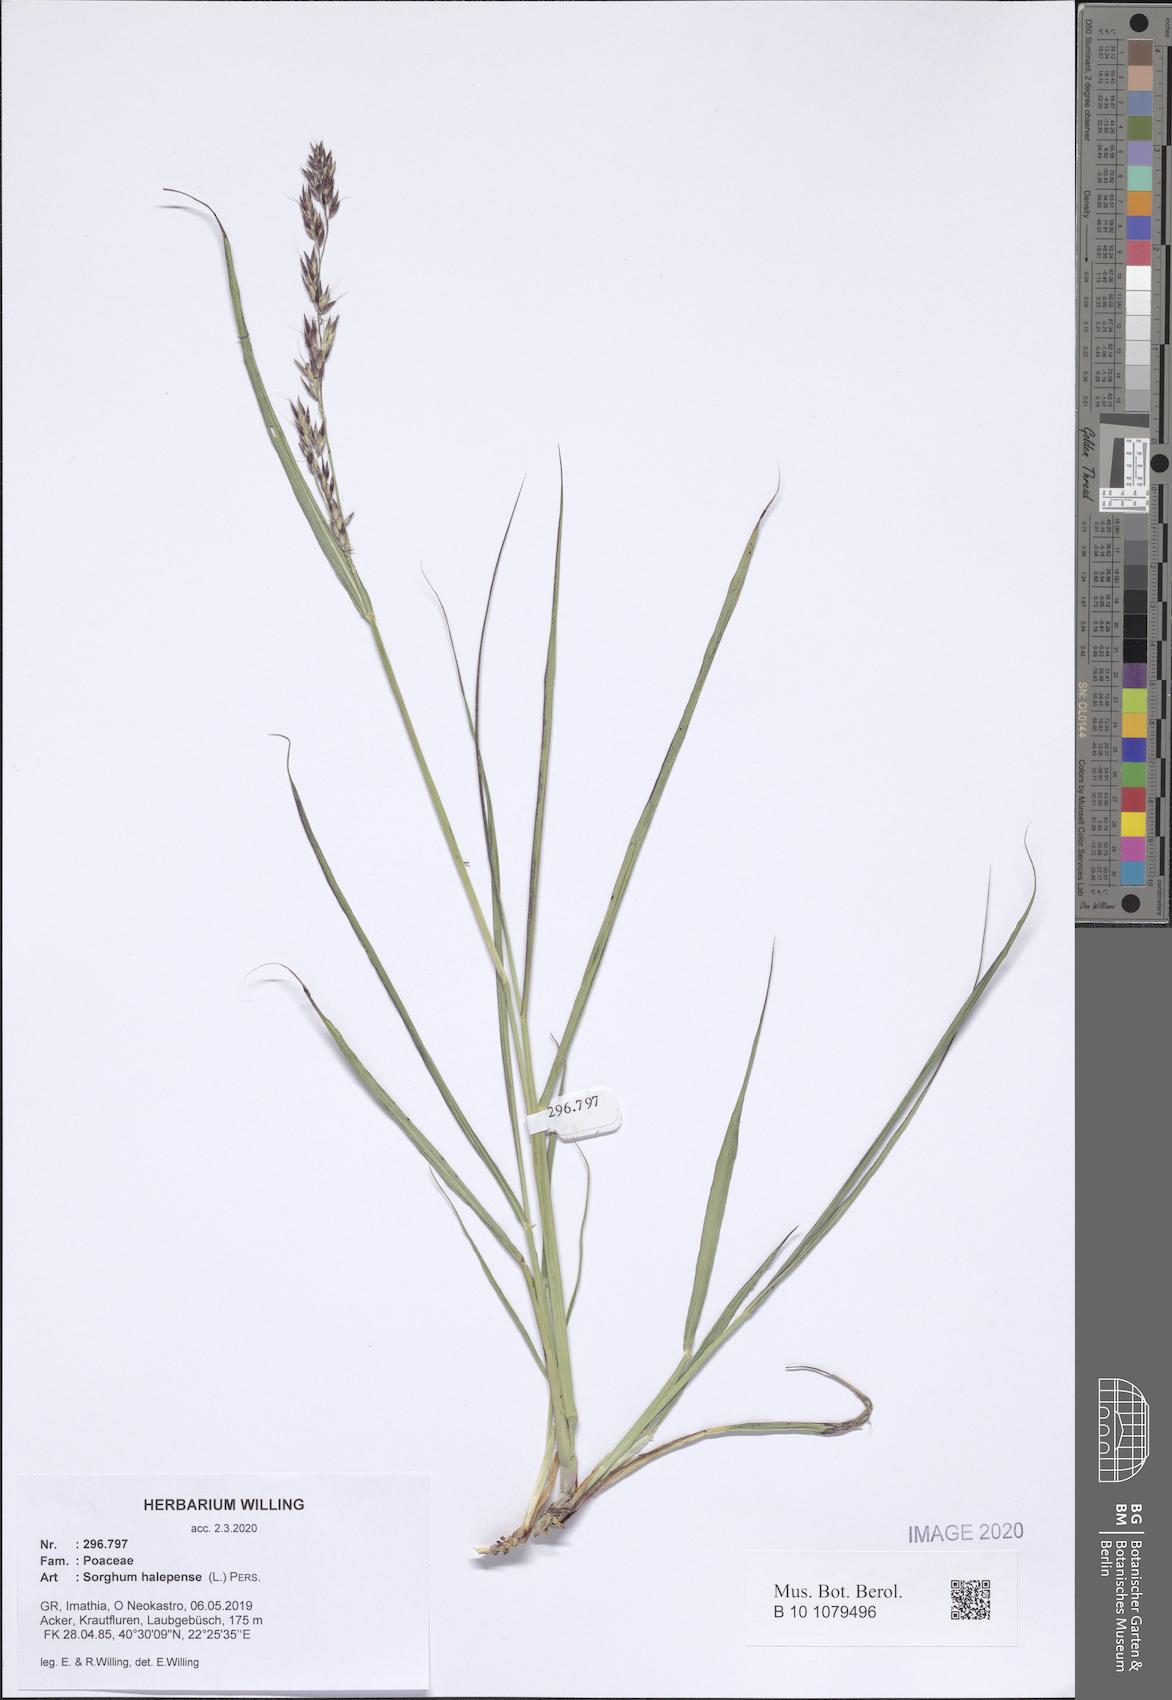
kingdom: Plantae
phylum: Tracheophyta
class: Liliopsida
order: Poales
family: Poaceae
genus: Sorghum
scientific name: Sorghum halepense
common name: Johnson-grass
